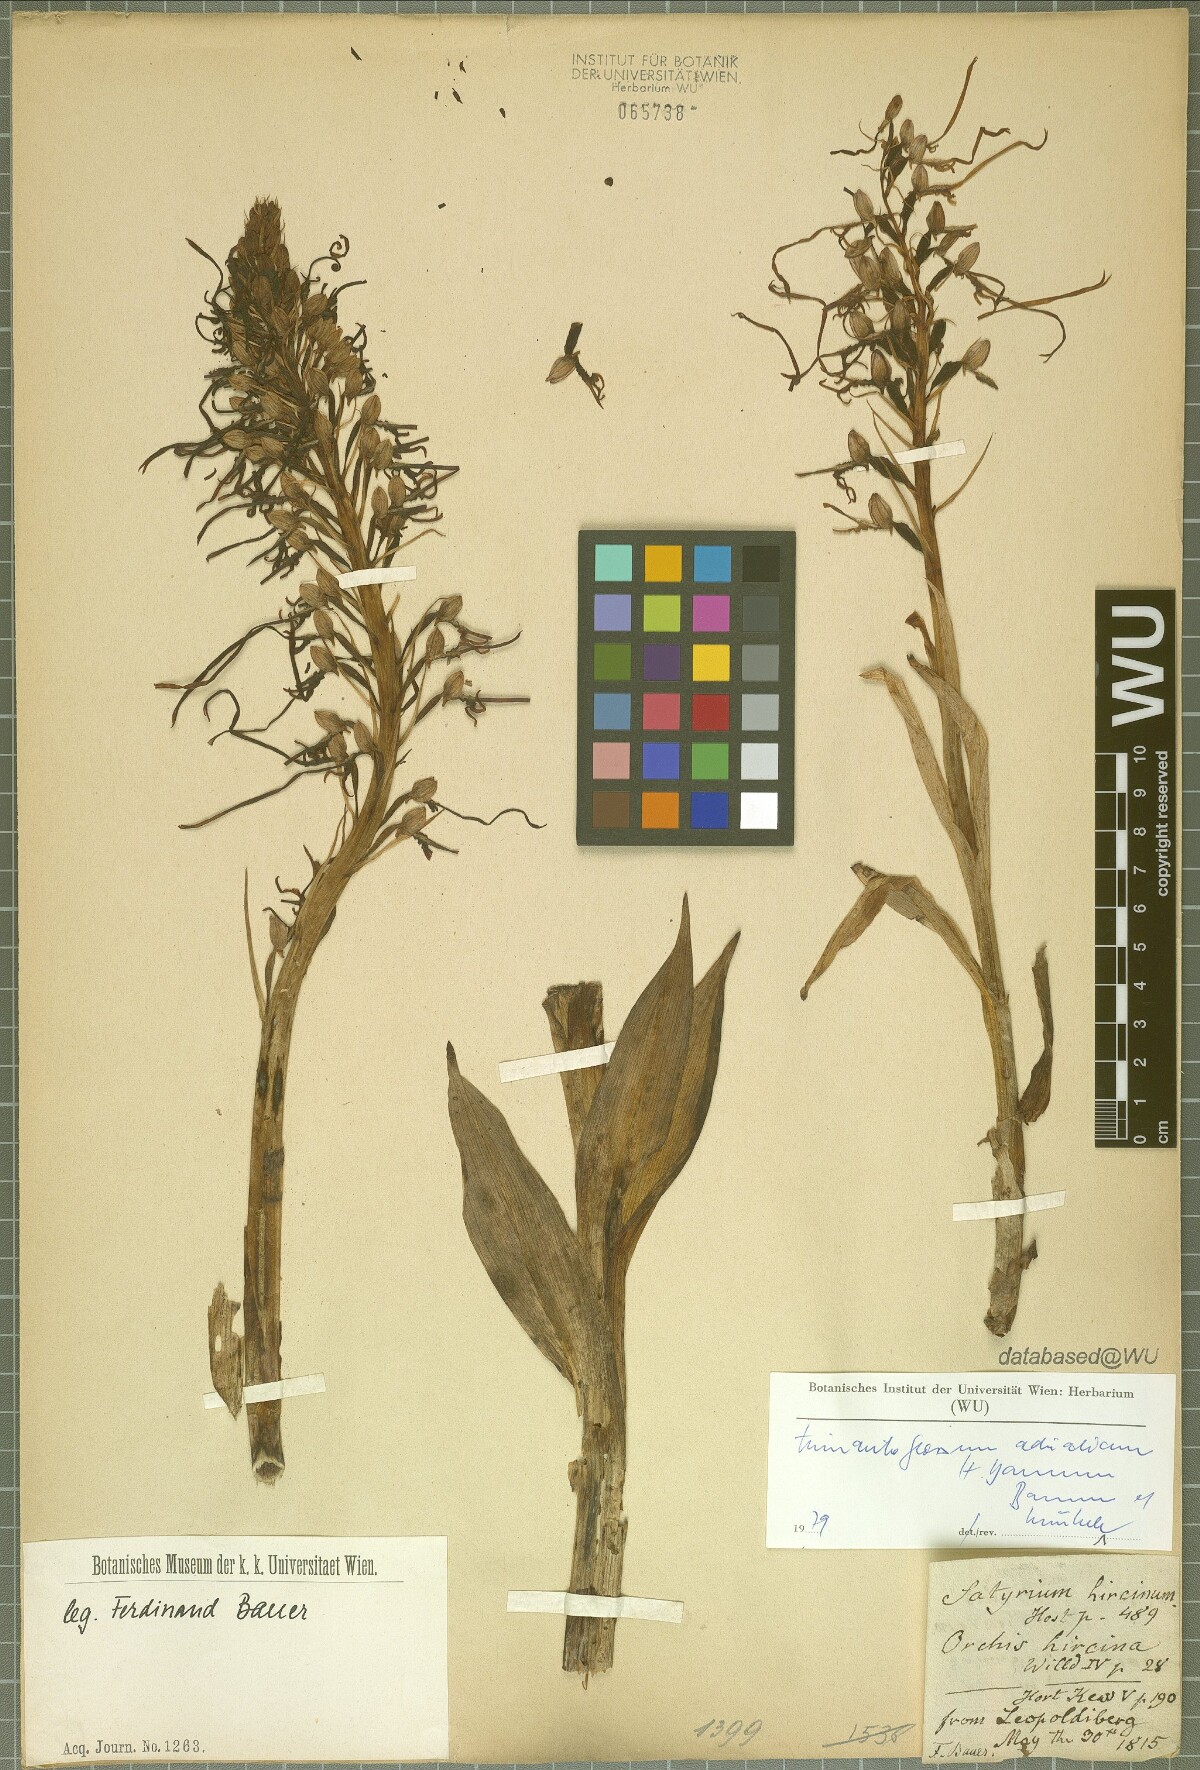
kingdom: Plantae
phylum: Tracheophyta
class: Liliopsida
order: Asparagales
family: Orchidaceae
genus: Himantoglossum
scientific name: Himantoglossum adriaticum
